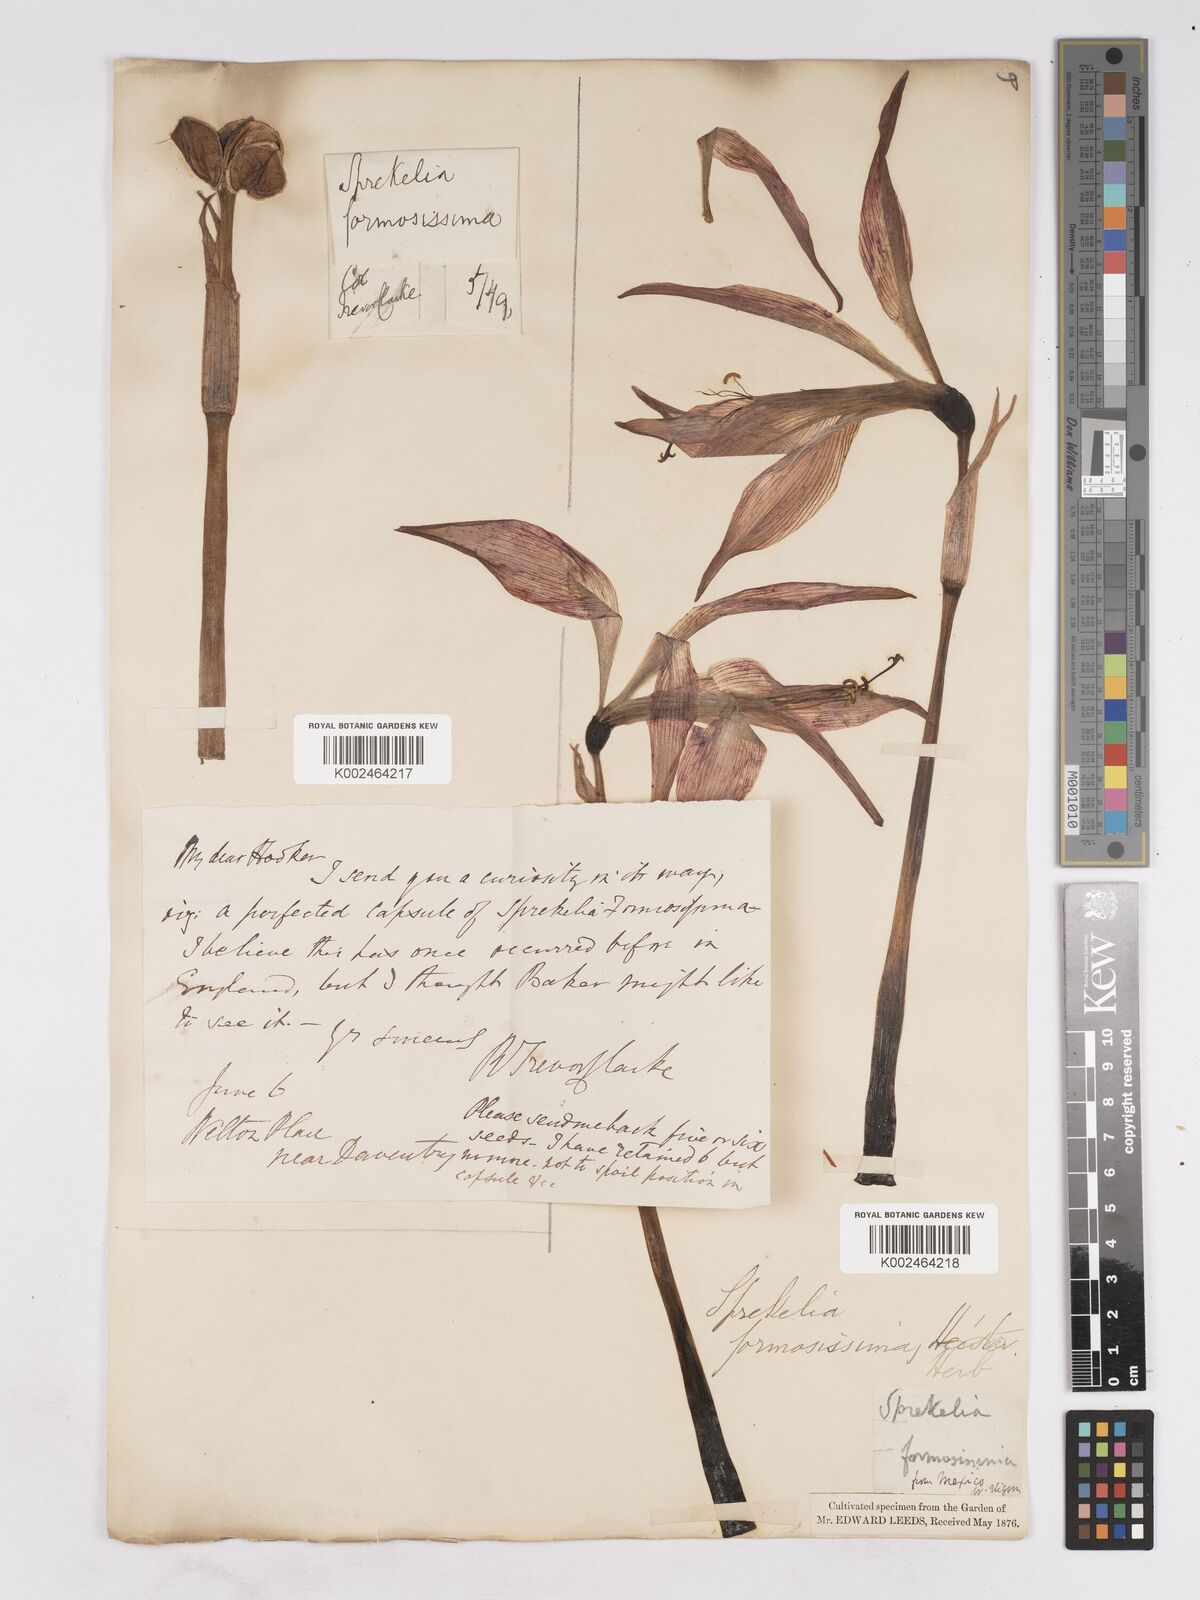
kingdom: Plantae
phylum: Tracheophyta
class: Liliopsida
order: Asparagales
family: Amaryllidaceae
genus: Sprekelia
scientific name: Sprekelia formosissima
